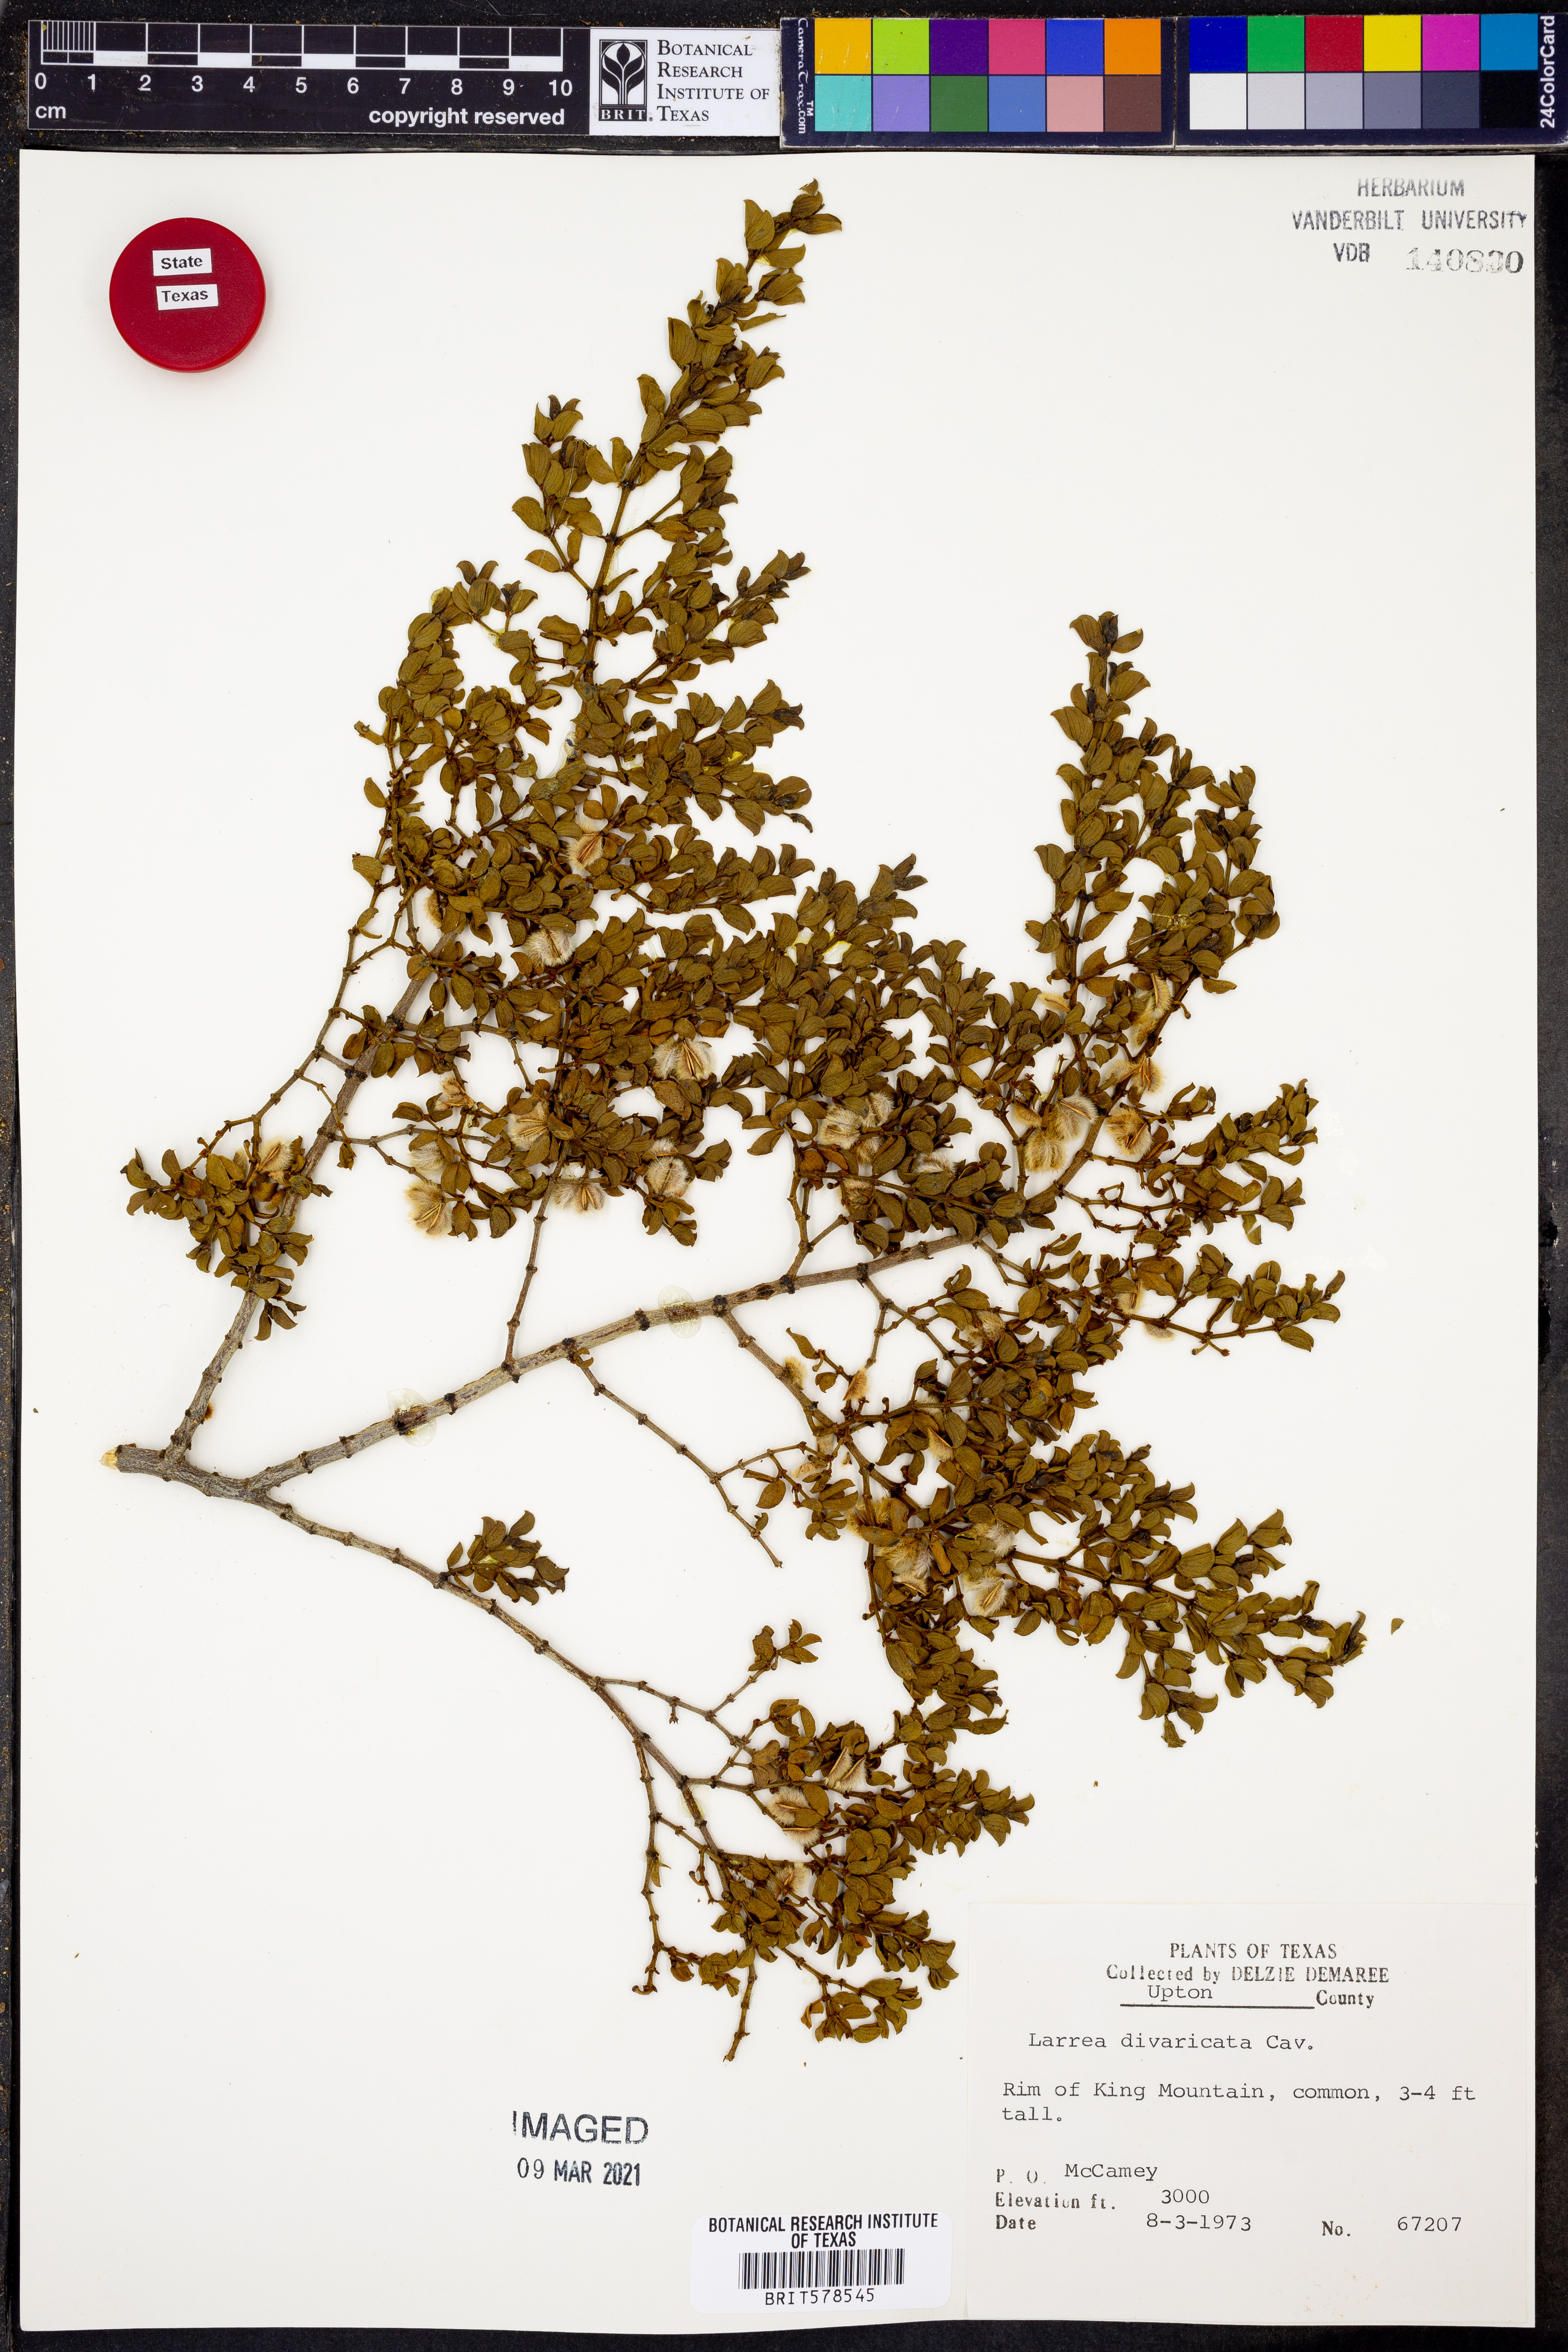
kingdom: Plantae
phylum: Tracheophyta
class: Magnoliopsida
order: Zygophyllales
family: Zygophyllaceae
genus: Larrea
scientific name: Larrea divaricata
